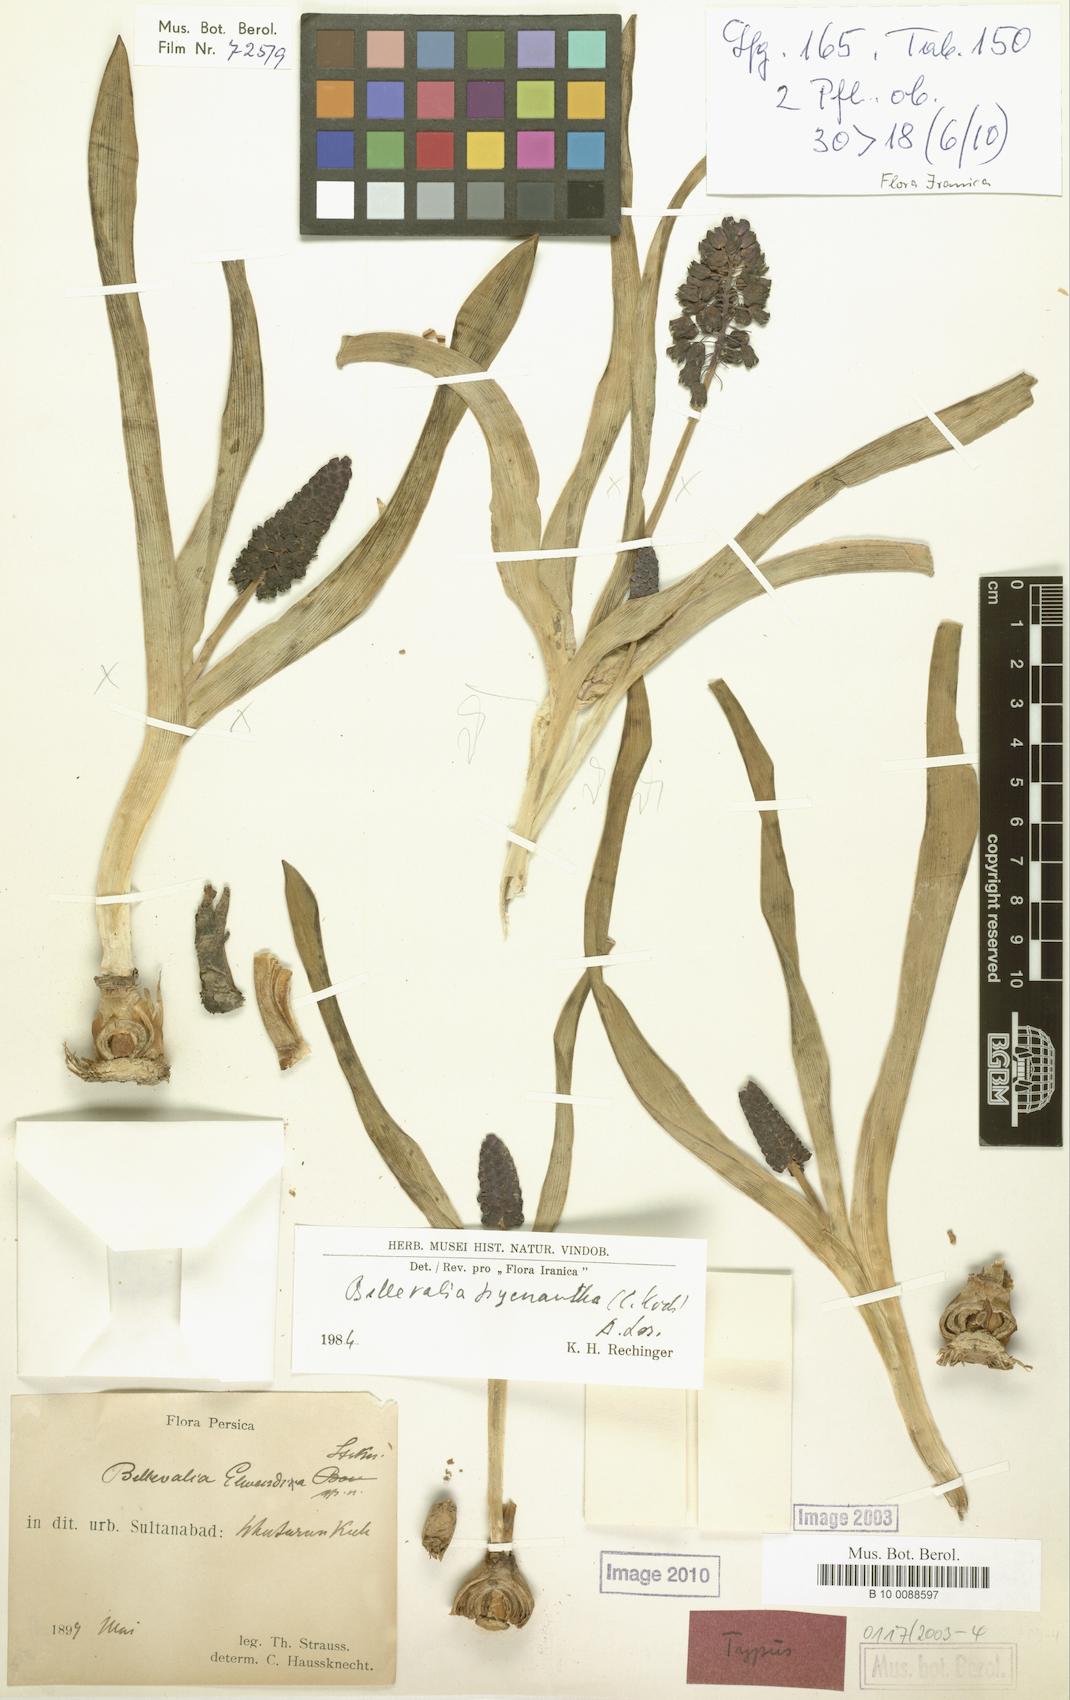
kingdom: Plantae
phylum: Tracheophyta
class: Liliopsida
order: Asparagales
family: Asparagaceae
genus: Bellevalia
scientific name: Bellevalia paradoxa
